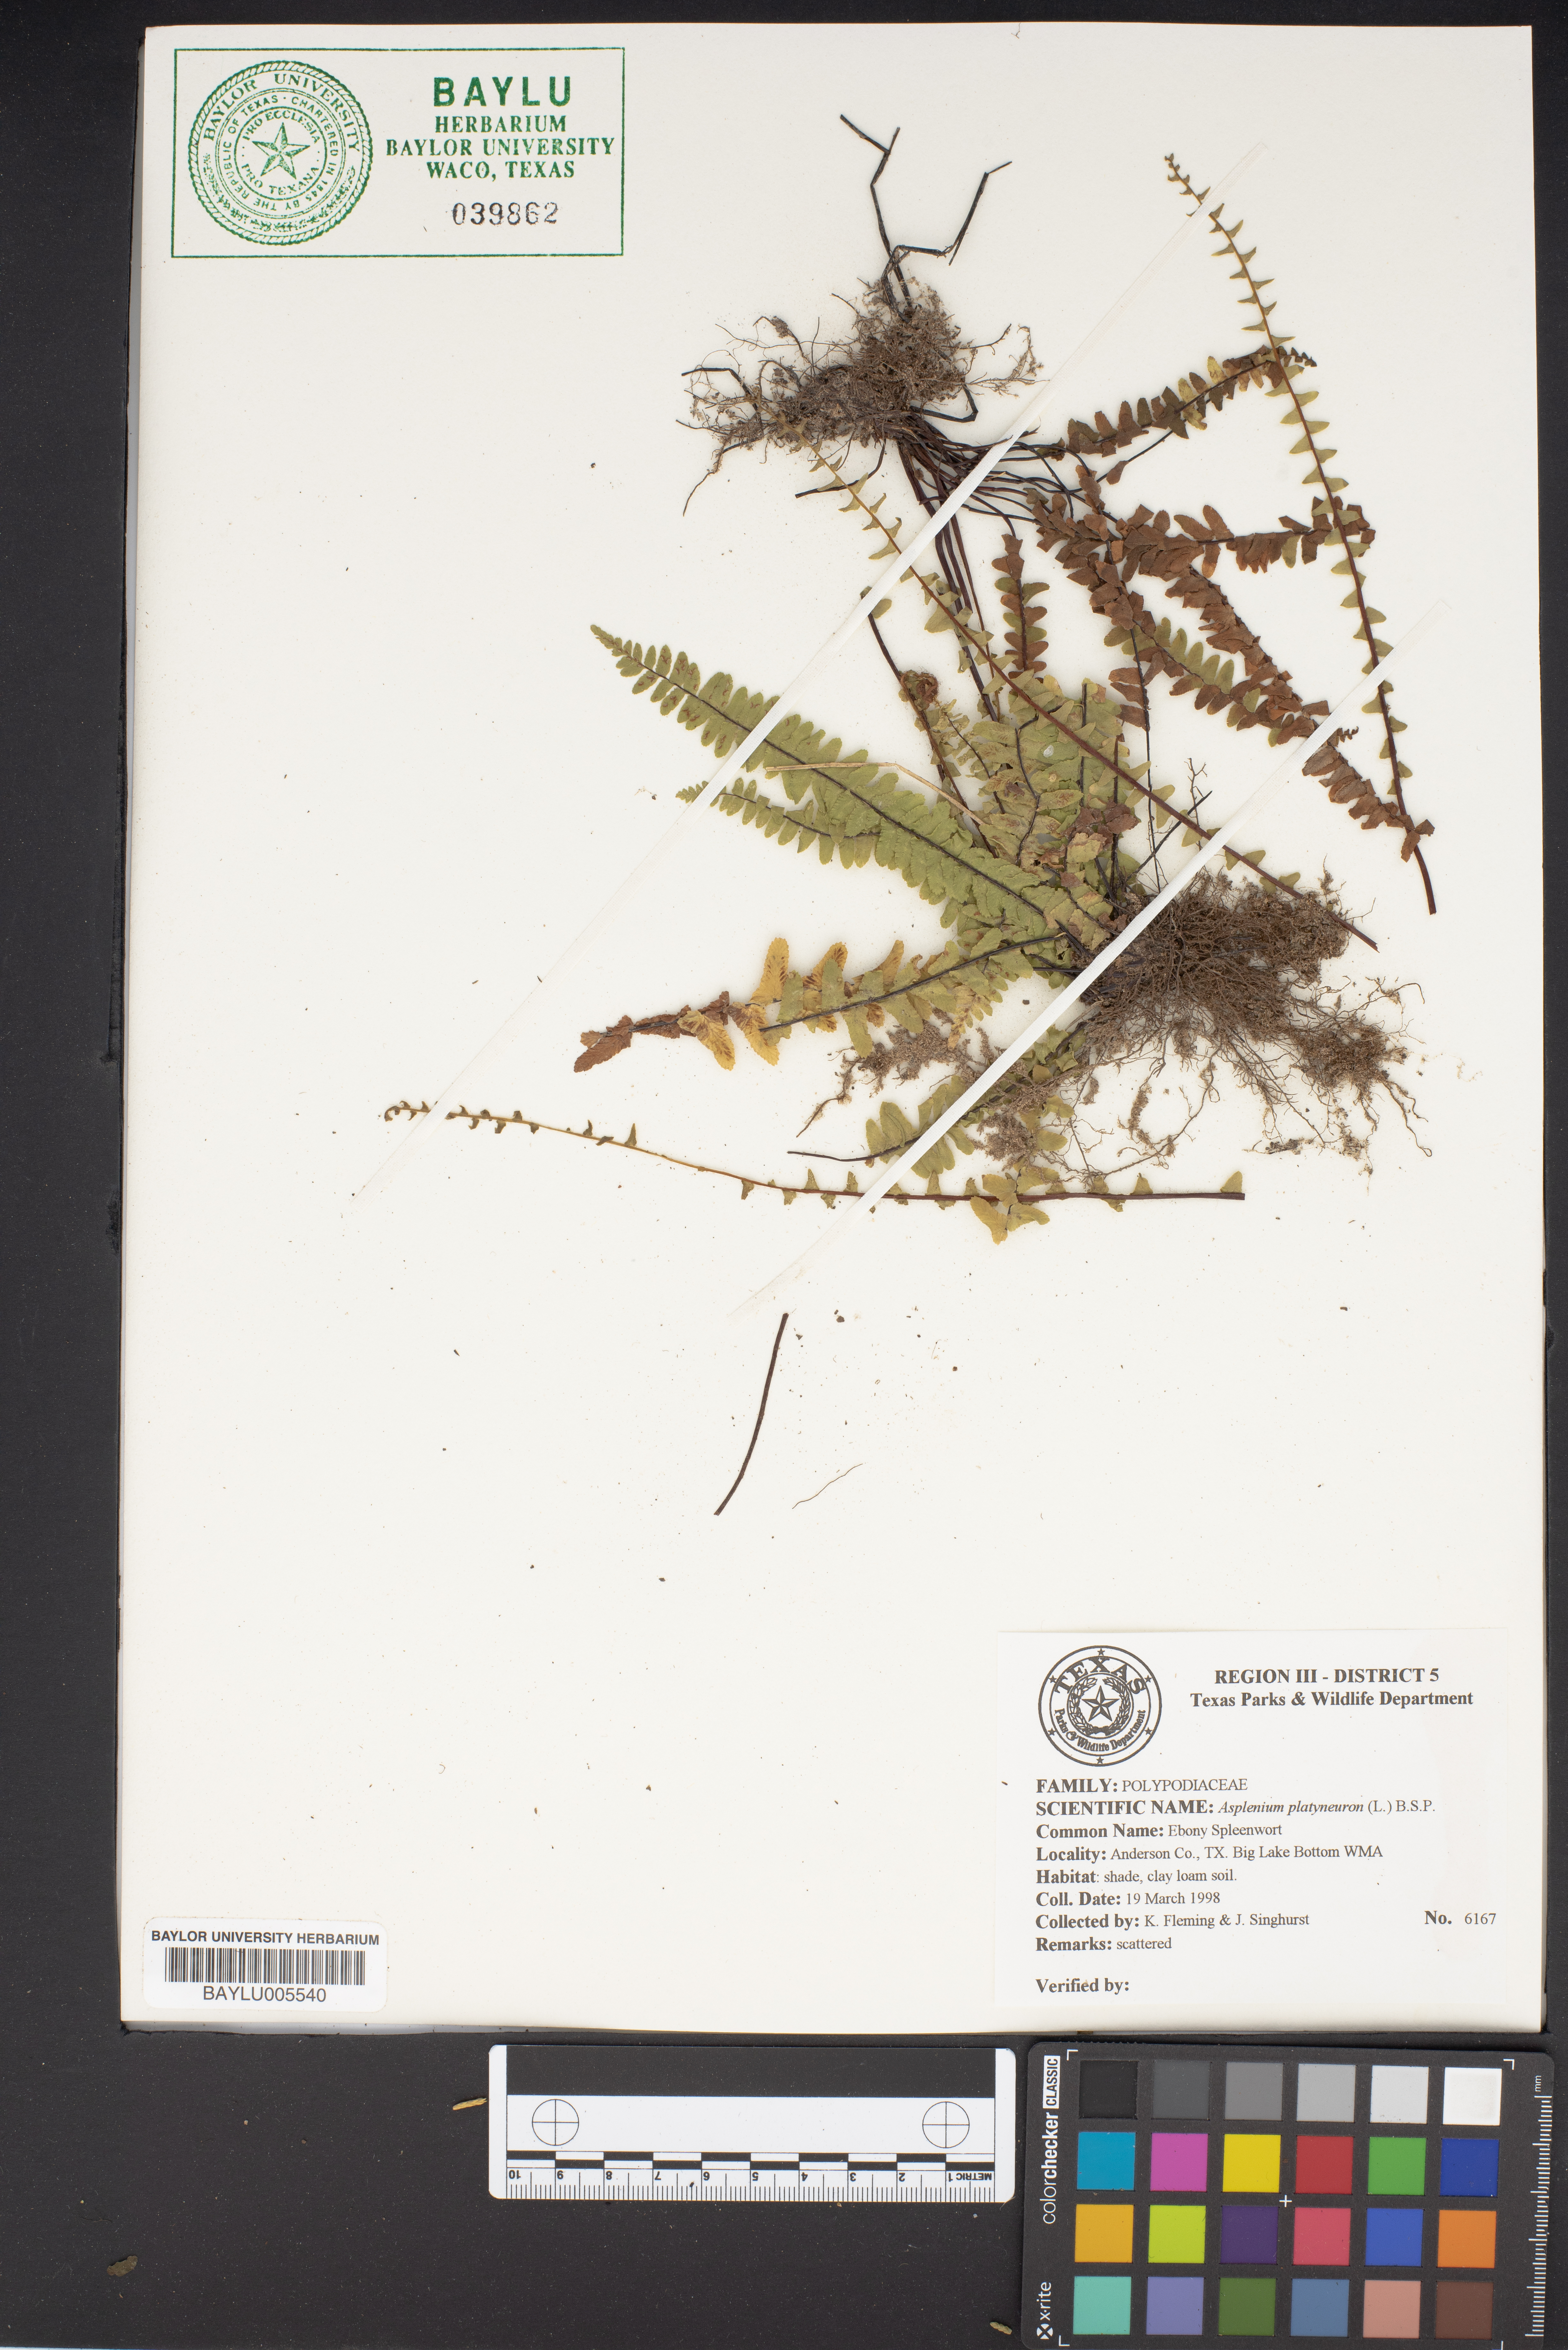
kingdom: Plantae
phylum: Tracheophyta
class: Polypodiopsida
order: Polypodiales
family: Aspleniaceae
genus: Asplenium
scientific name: Asplenium platyneuron
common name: Ebony spleenwort
